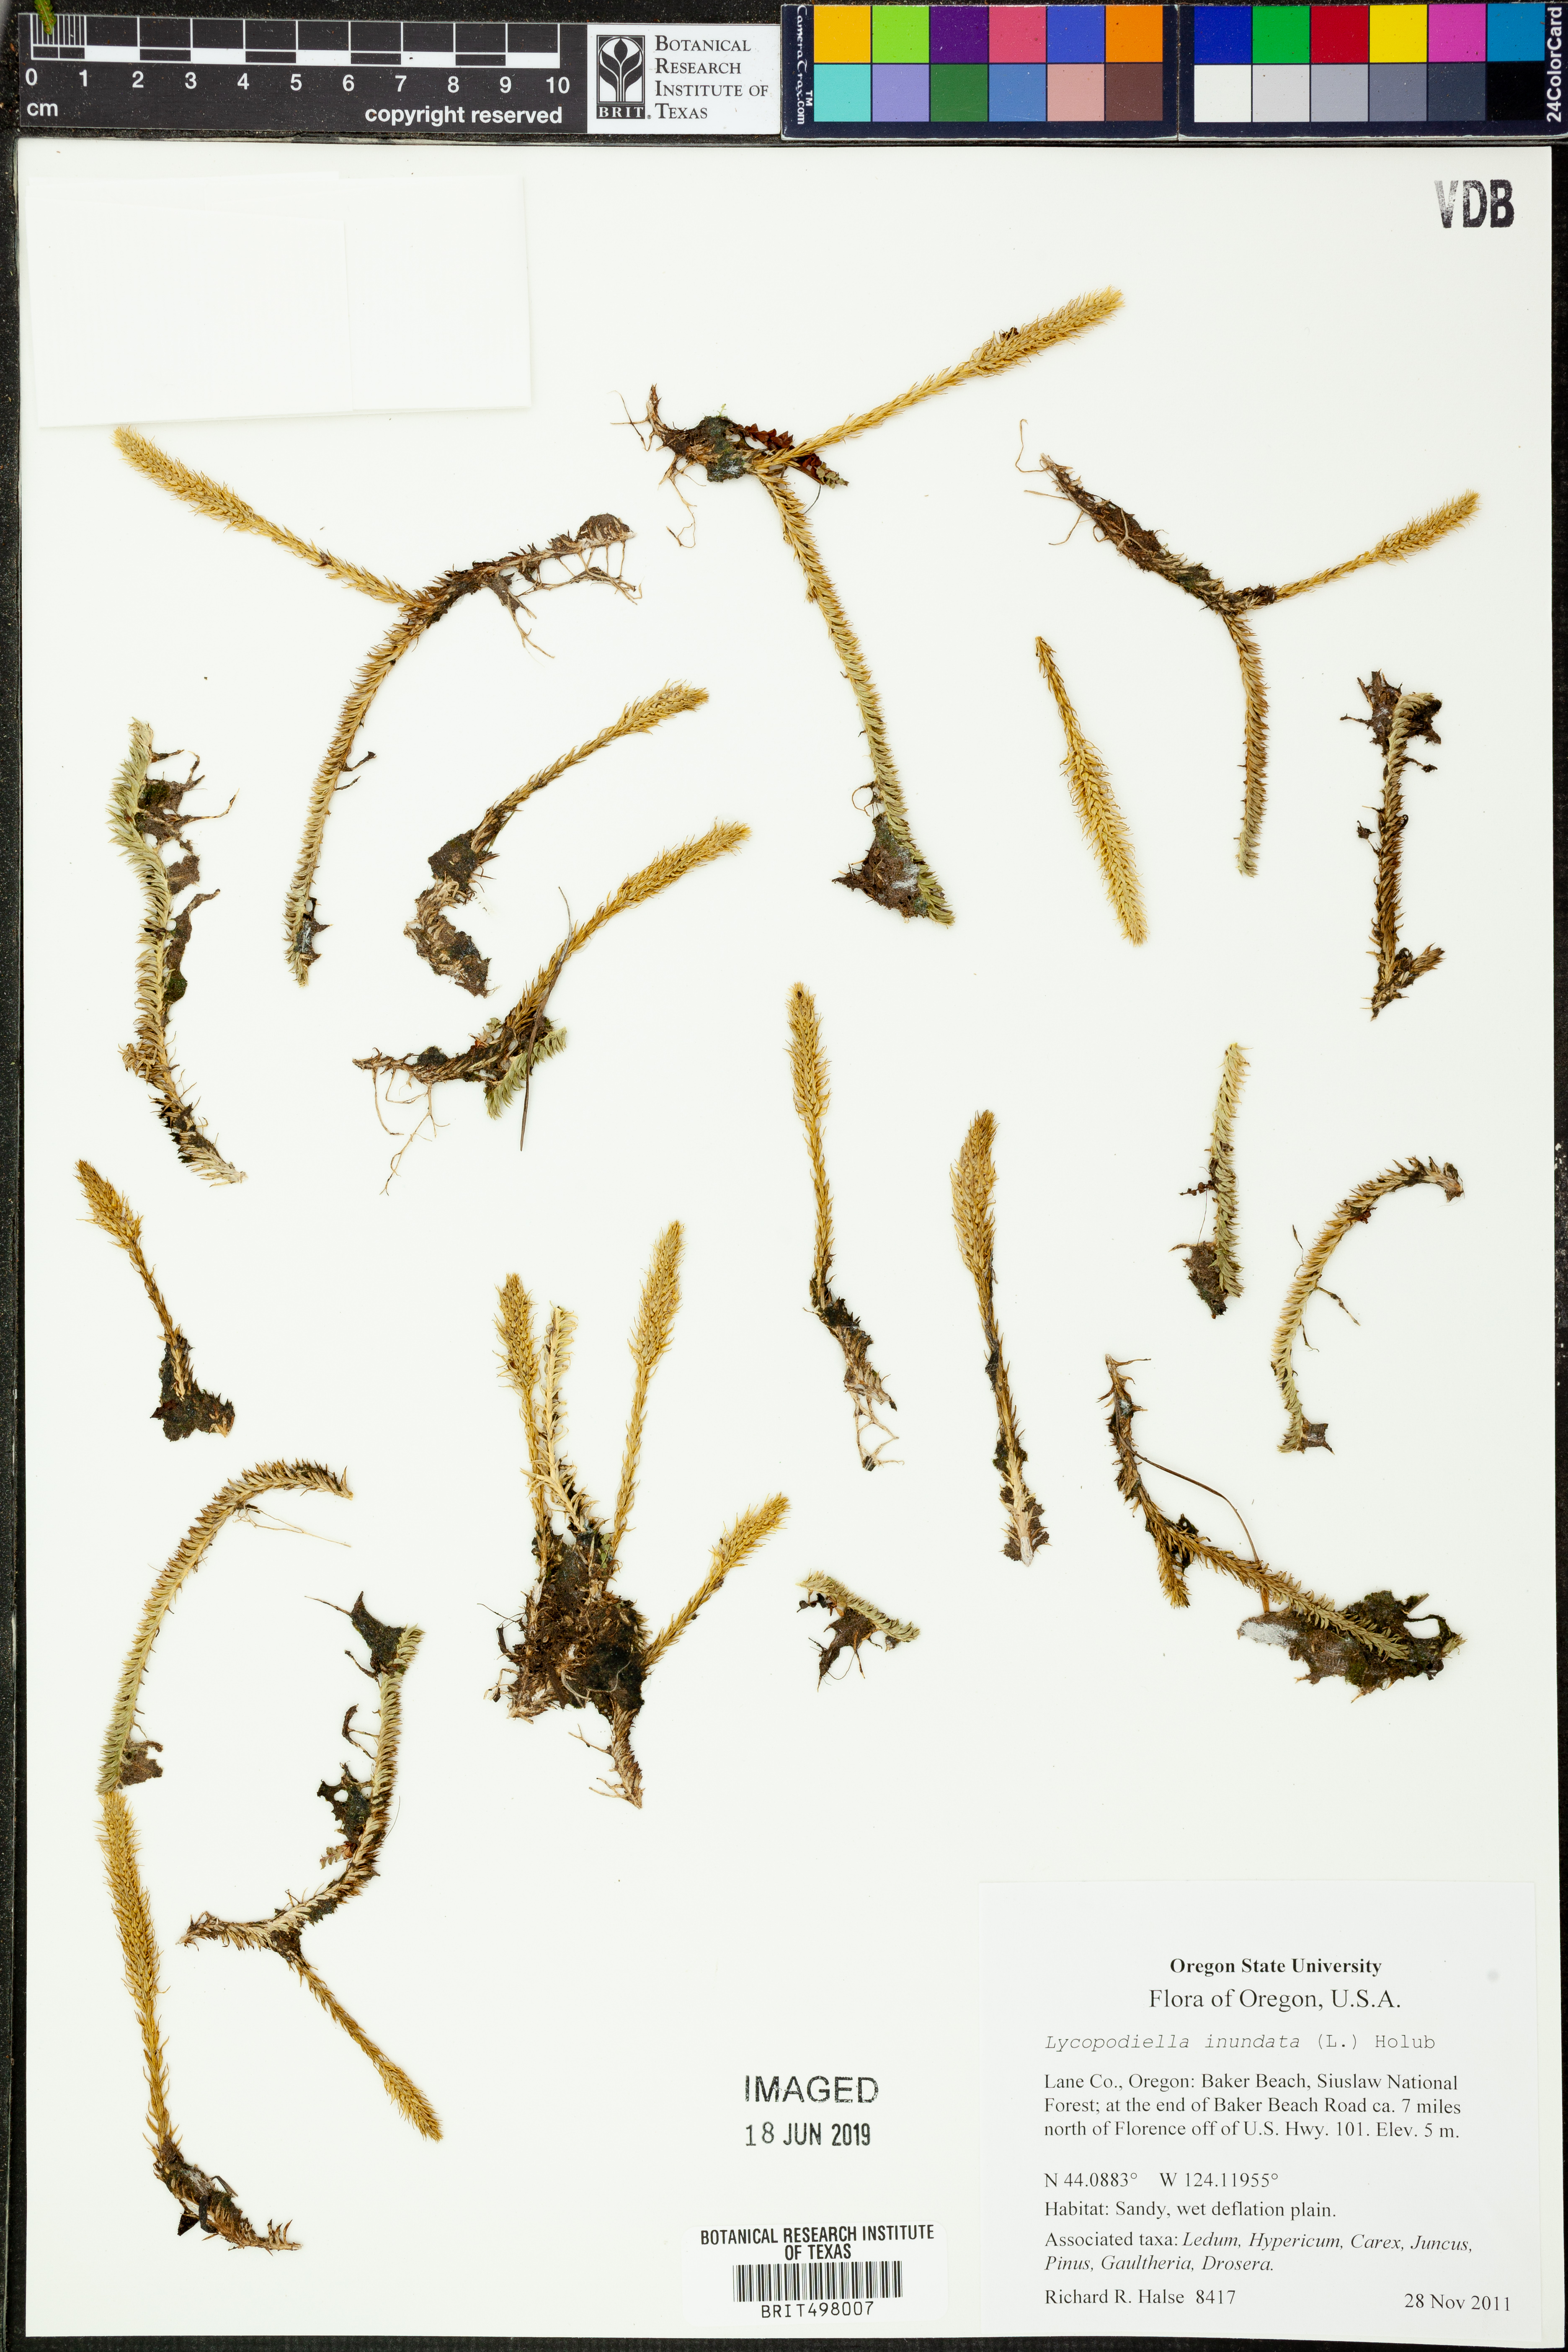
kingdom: Plantae
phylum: Tracheophyta
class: Lycopodiopsida
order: Lycopodiales
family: Lycopodiaceae
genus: Lycopodiella
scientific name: Lycopodiella inundata
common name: Marsh clubmoss
